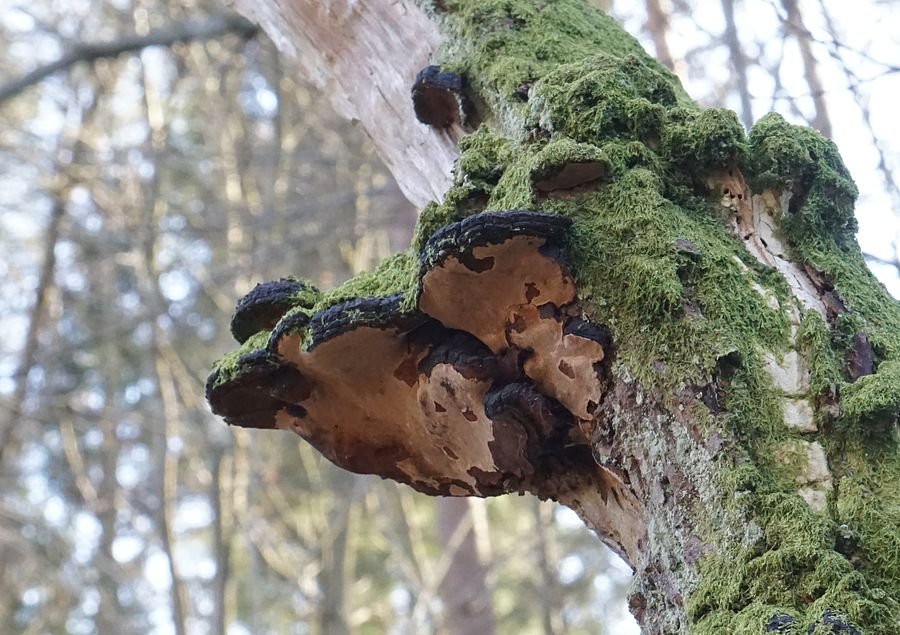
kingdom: Fungi
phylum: Basidiomycota
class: Agaricomycetes
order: Hymenochaetales
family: Hymenochaetaceae
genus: Phellinopsis
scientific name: Phellinopsis conchata
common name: pile-ildporesvamp
